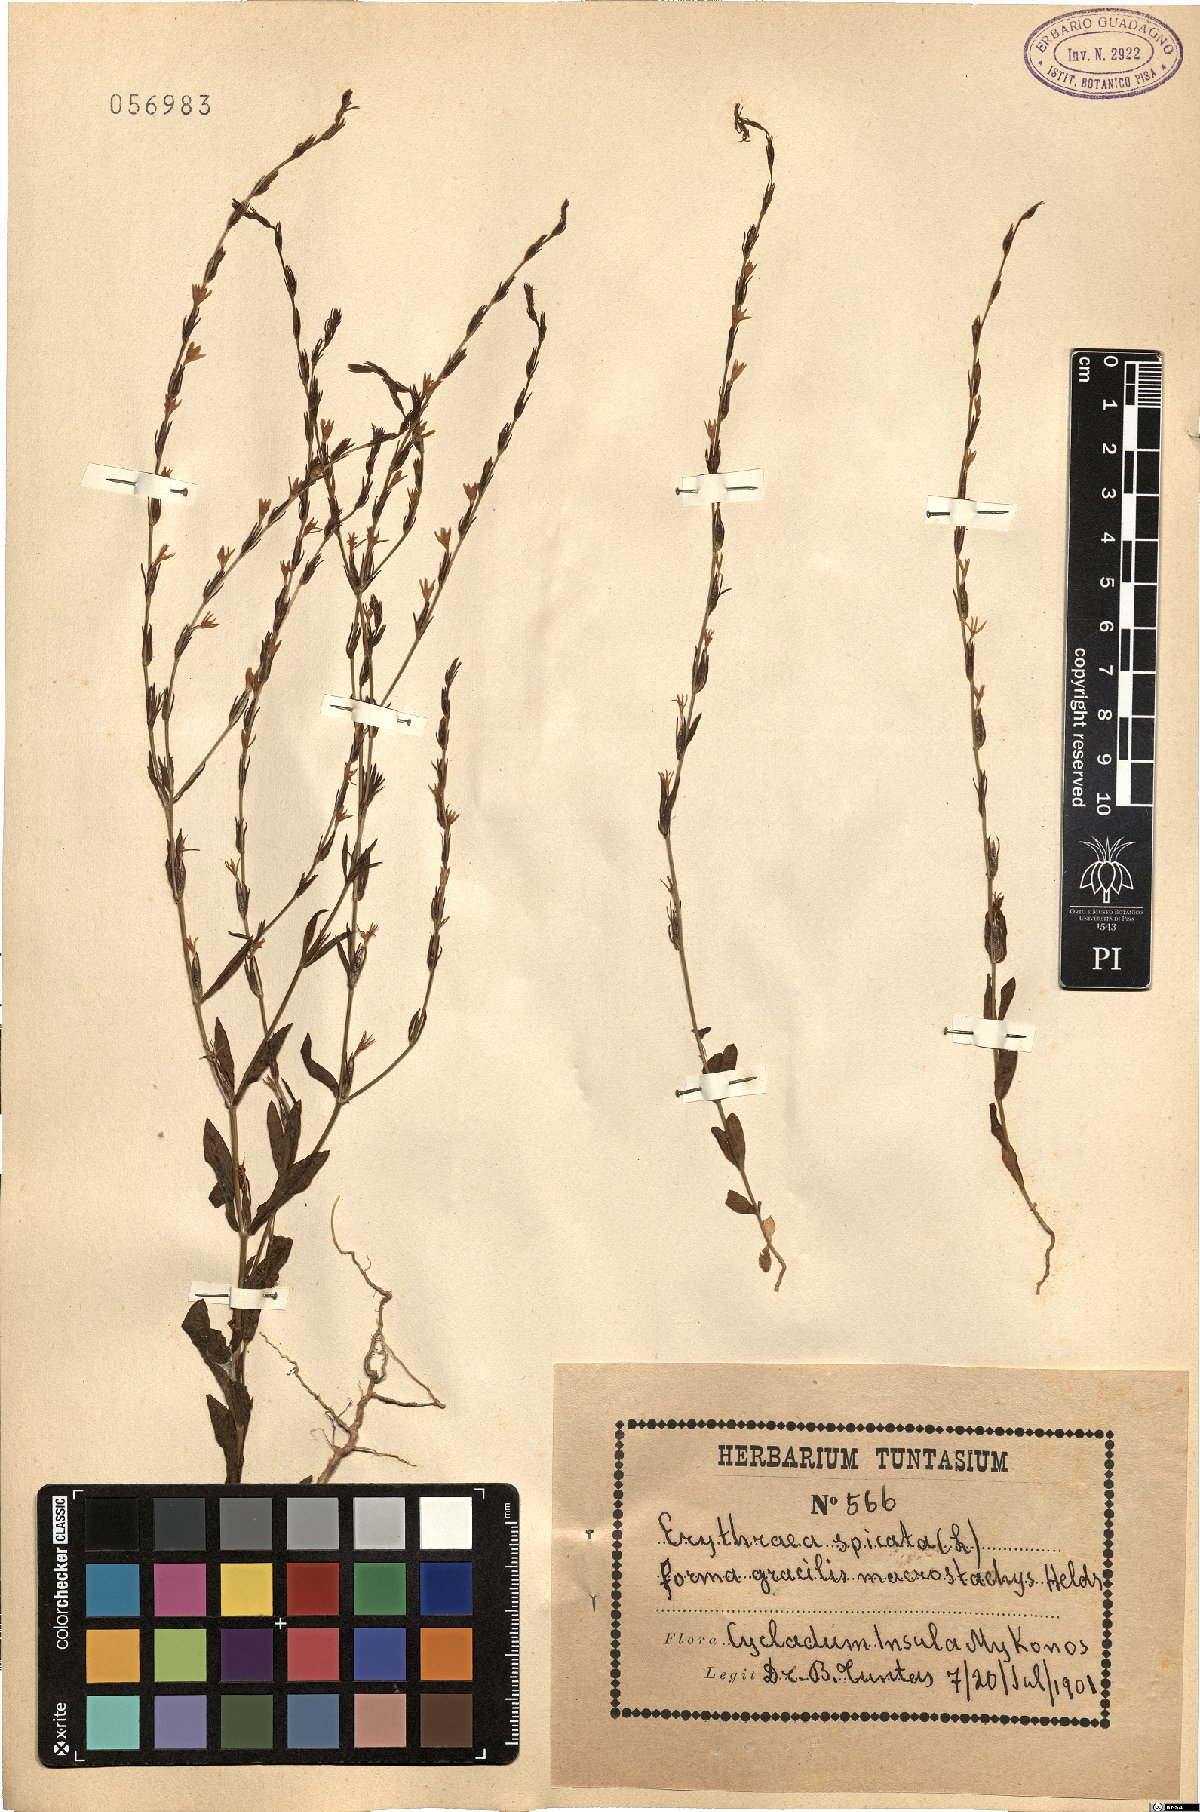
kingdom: Plantae
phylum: Tracheophyta
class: Magnoliopsida
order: Gentianales
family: Gentianaceae
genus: Schenkia
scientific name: Schenkia spicata
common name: Spiked centaury
